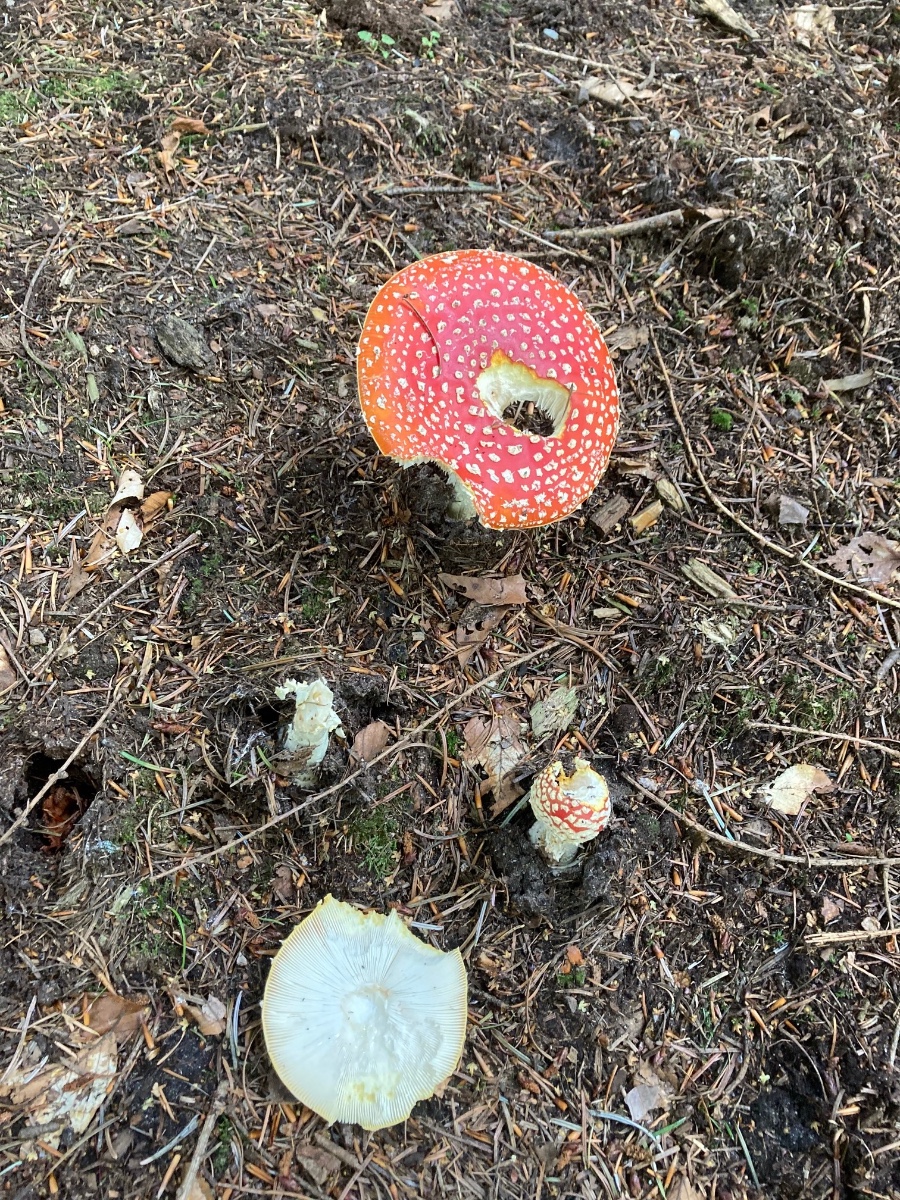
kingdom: Fungi
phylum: Basidiomycota
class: Agaricomycetes
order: Agaricales
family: Amanitaceae
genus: Amanita
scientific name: Amanita muscaria
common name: rød fluesvamp
